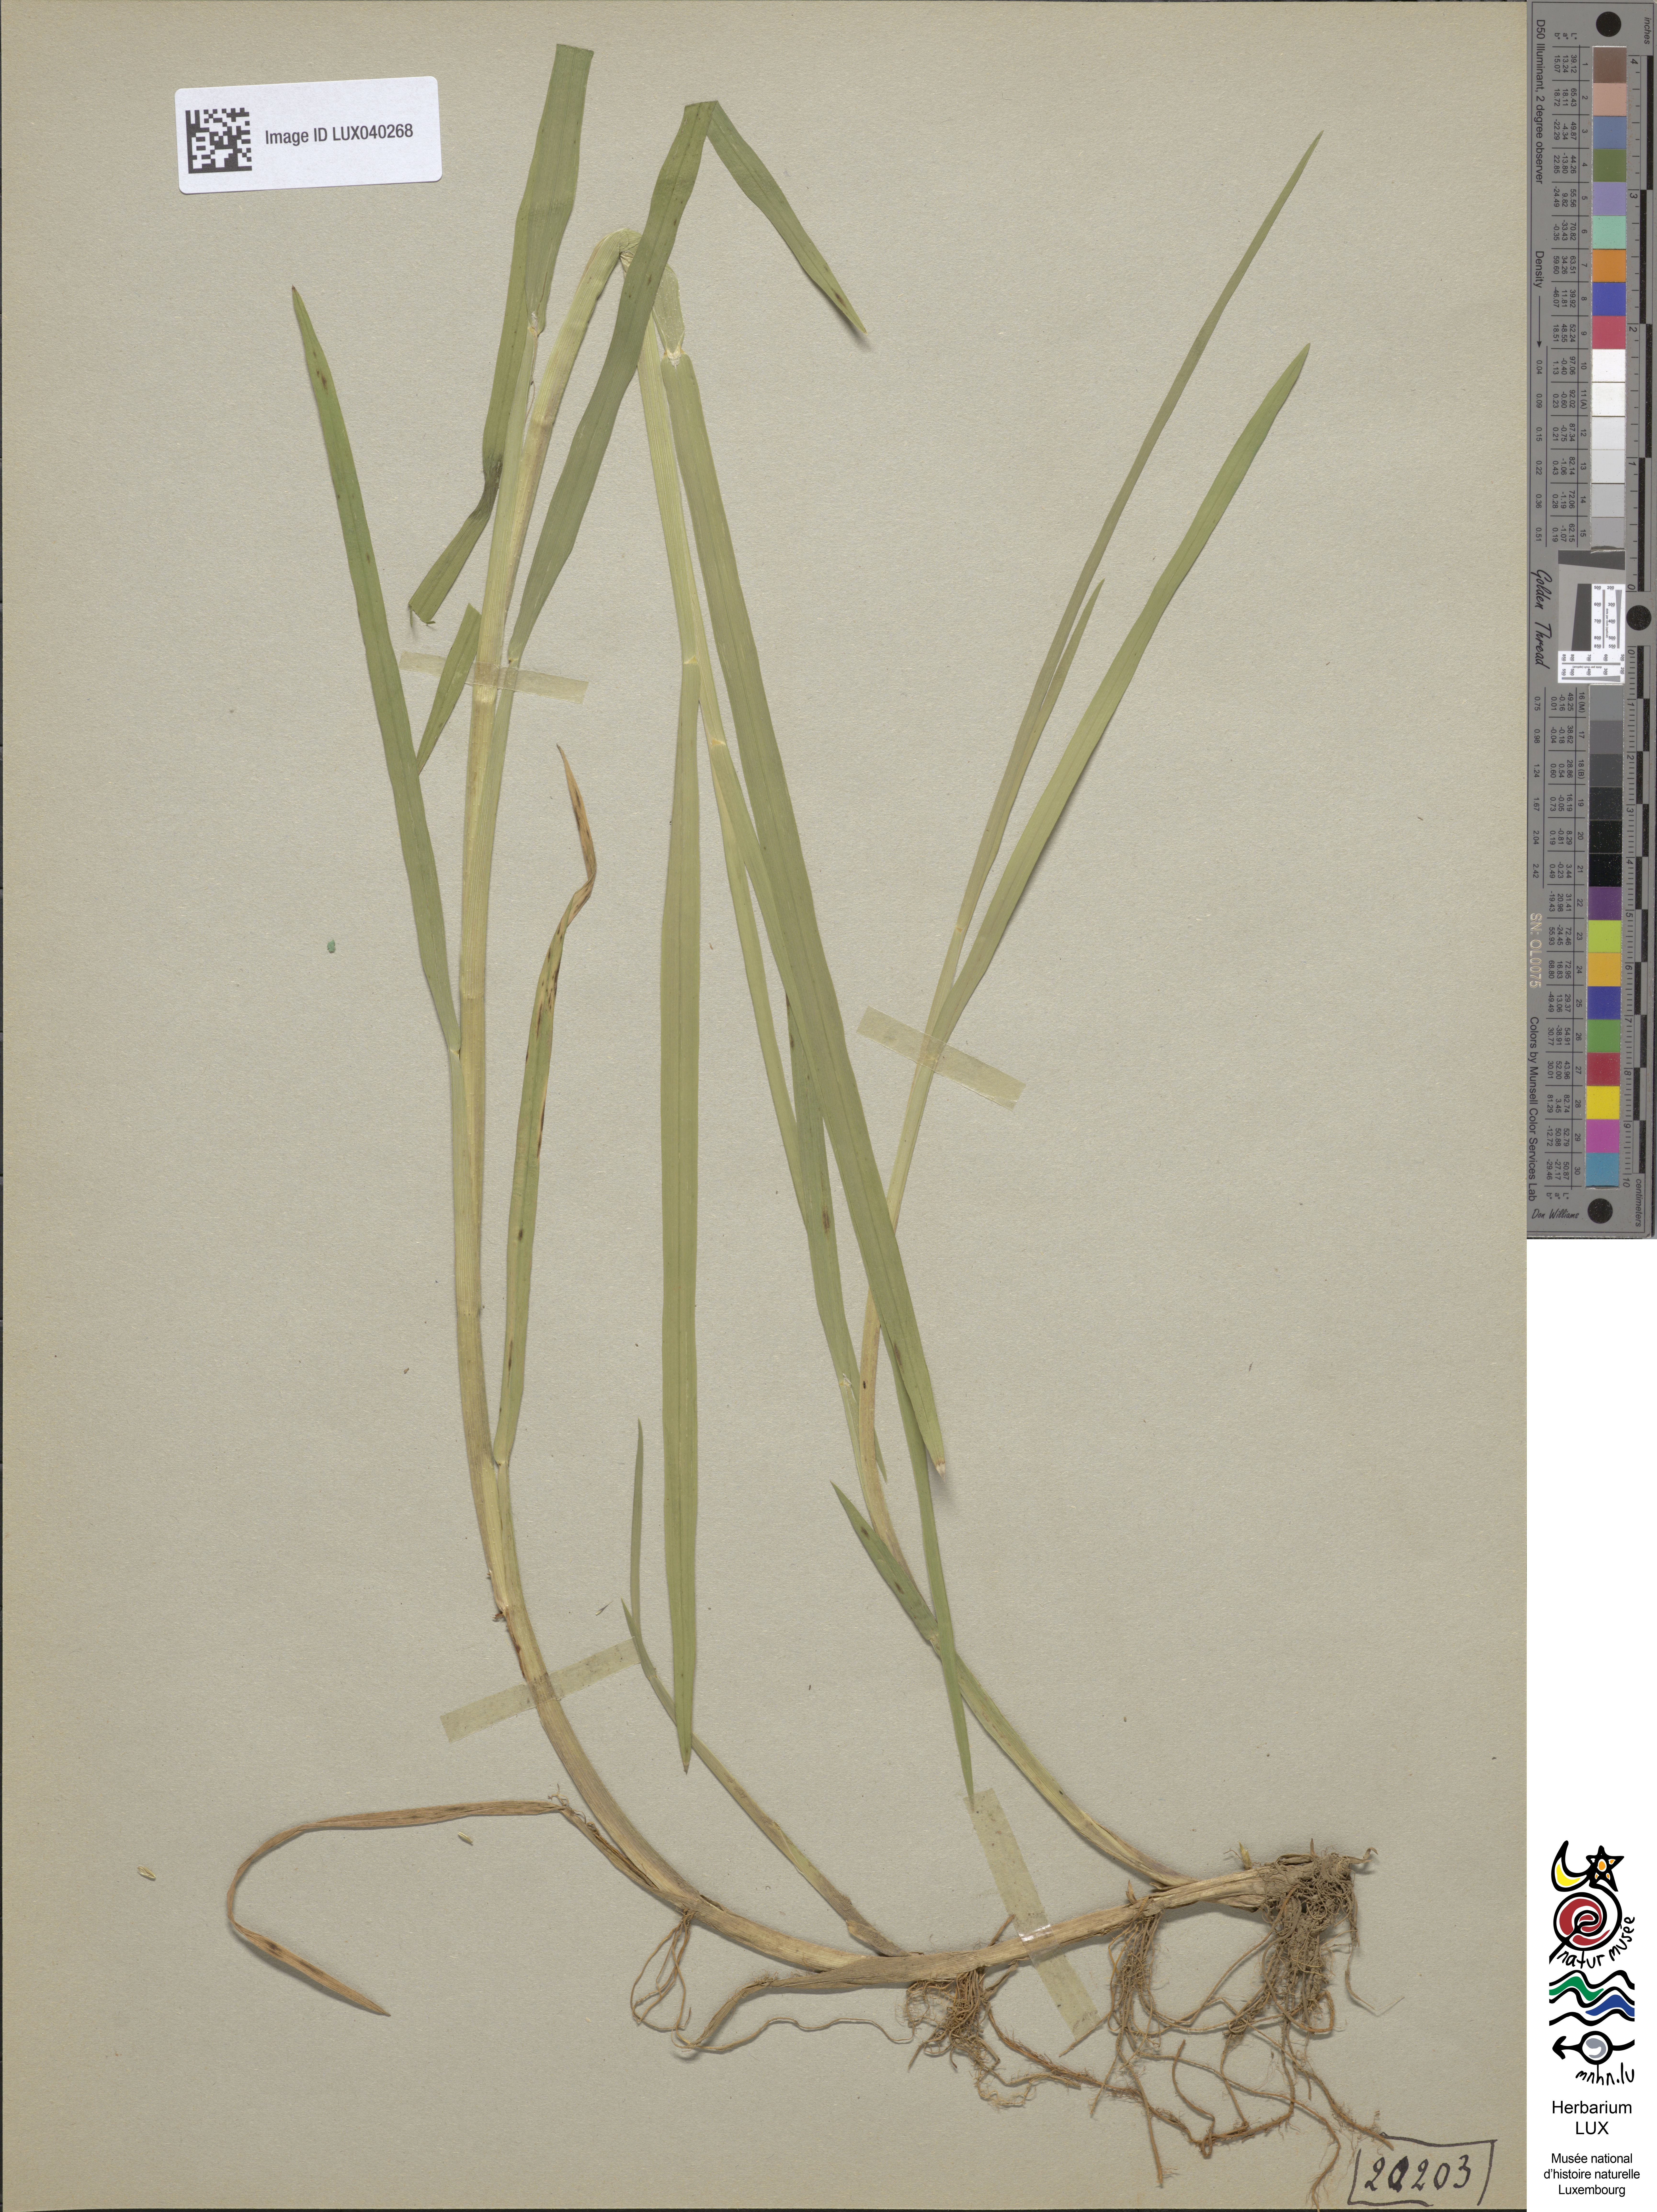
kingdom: Plantae
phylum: Tracheophyta
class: Liliopsida
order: Poales
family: Poaceae
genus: Glyceria
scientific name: Glyceria notata
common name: Plicate sweet-grass
